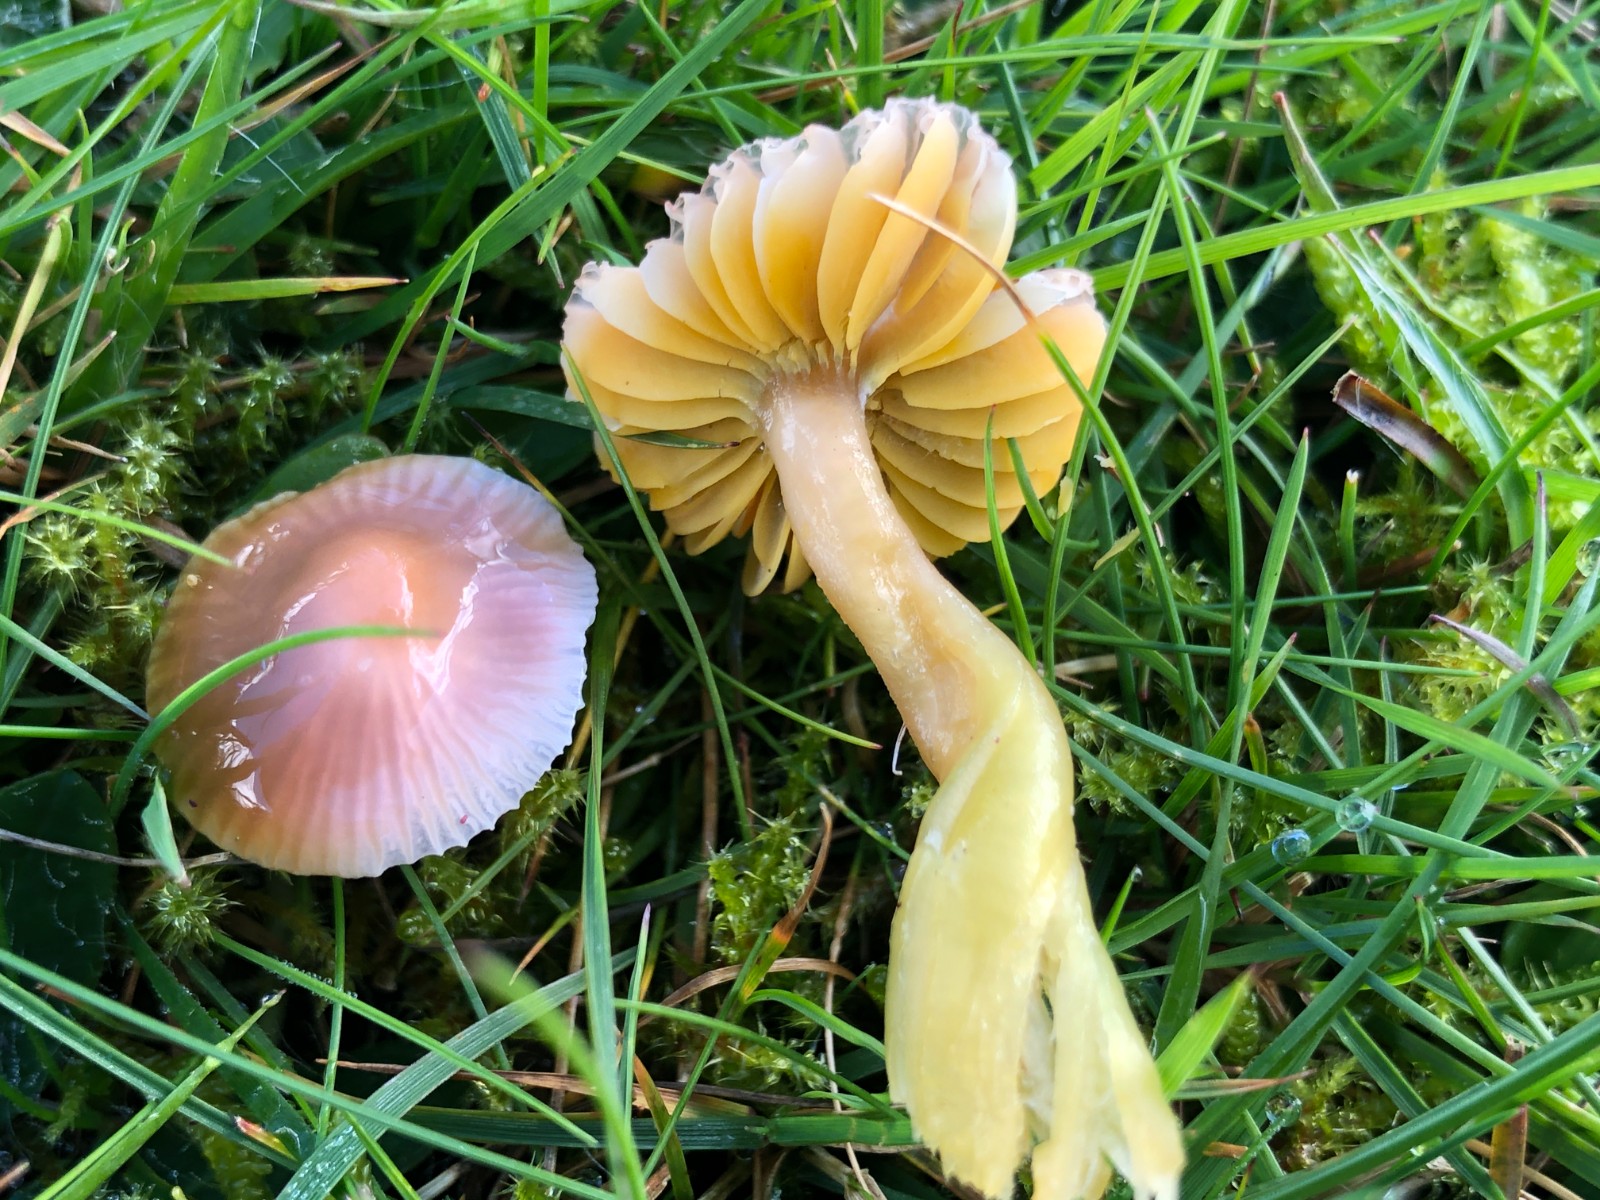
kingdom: Fungi
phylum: Basidiomycota
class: Agaricomycetes
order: Agaricales
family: Hygrophoraceae
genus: Gliophorus
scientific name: Gliophorus psittacinus
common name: papegøje-vokshat
